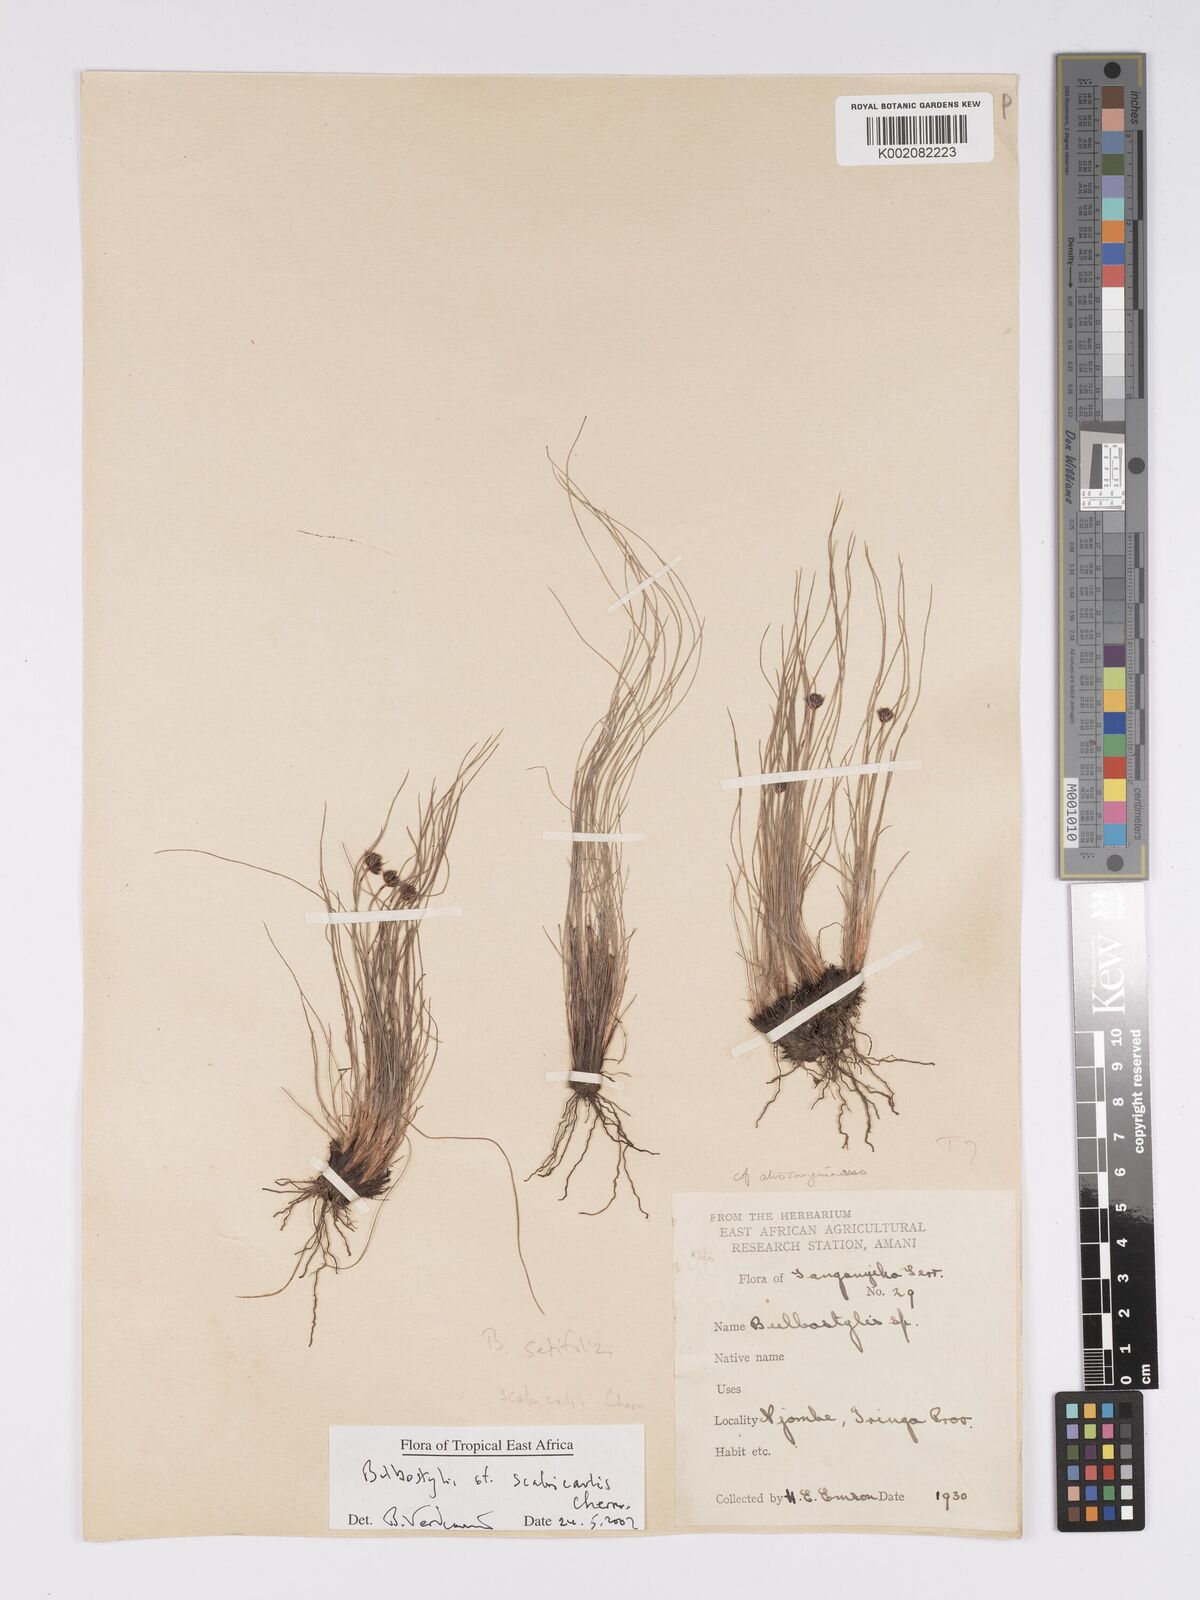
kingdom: Plantae
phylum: Tracheophyta
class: Liliopsida
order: Poales
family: Cyperaceae
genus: Bulbostylis
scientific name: Bulbostylis scabricaulis
